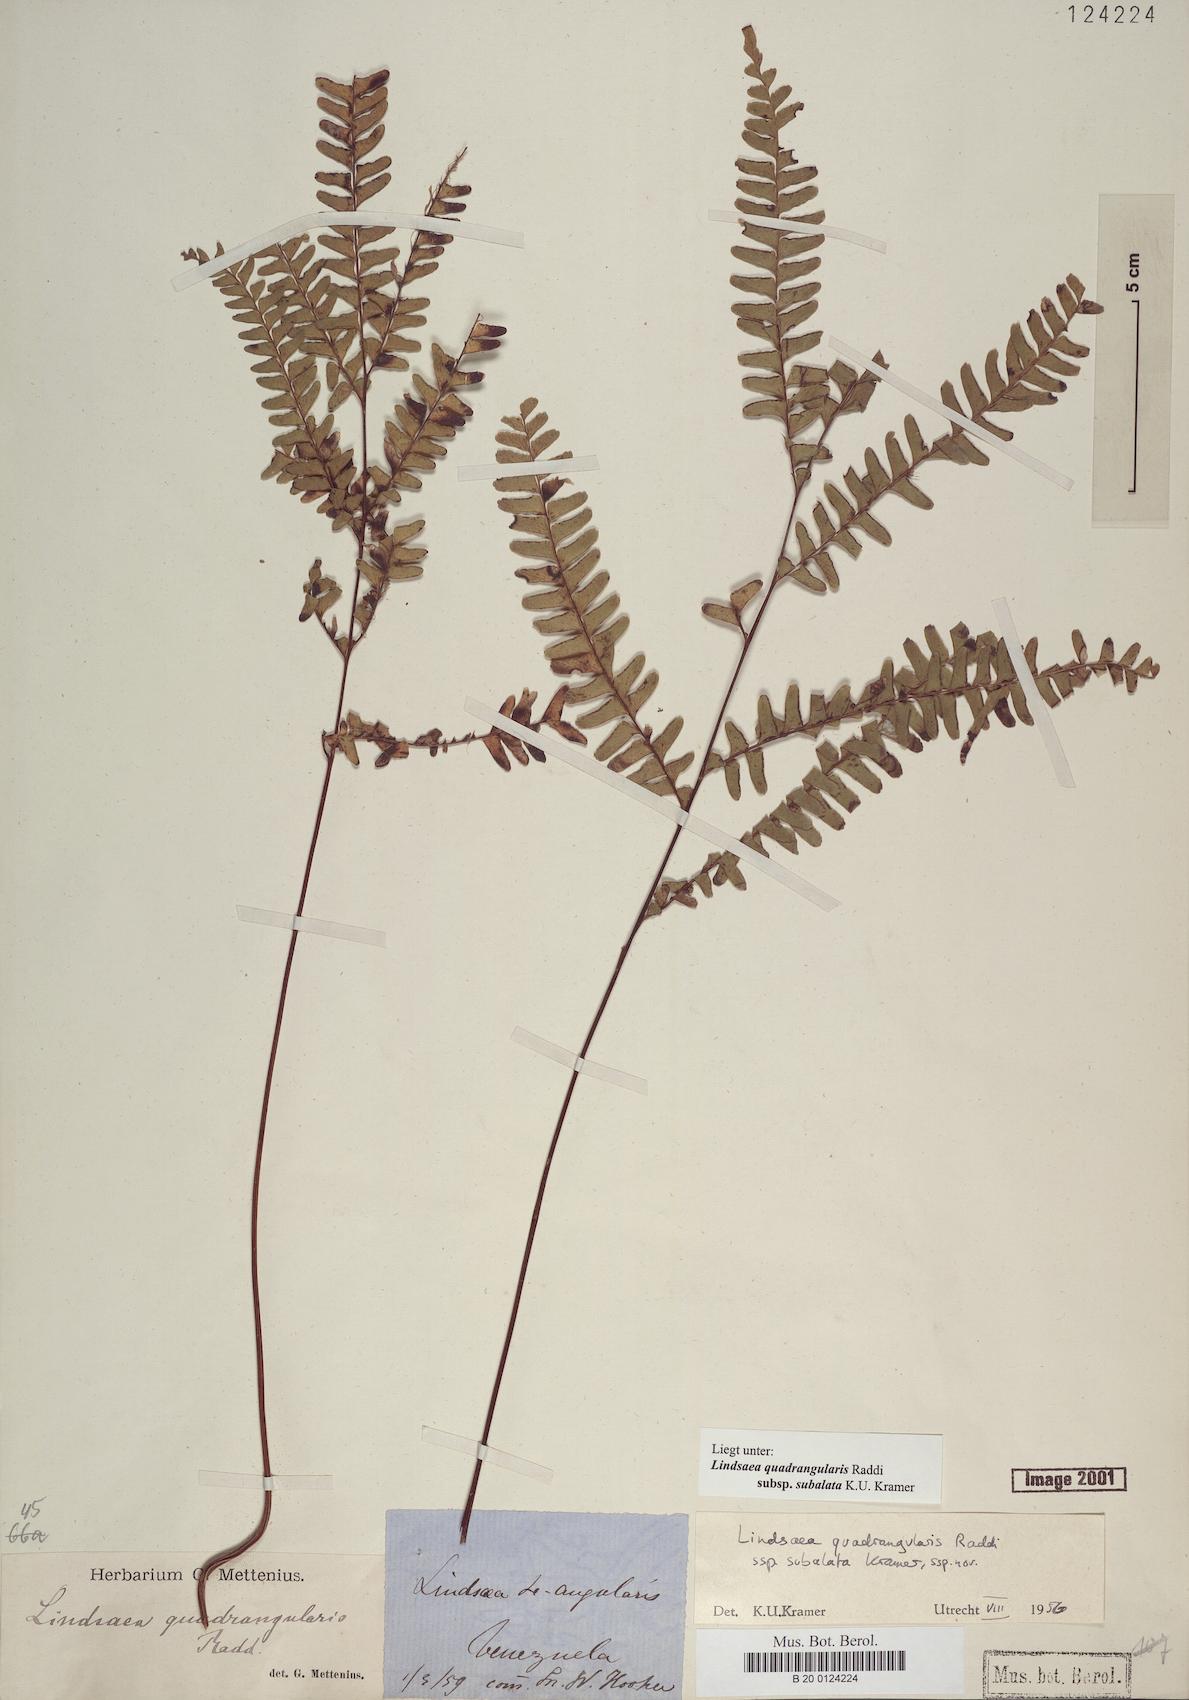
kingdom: Plantae
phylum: Tracheophyta
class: Polypodiopsida
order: Polypodiales
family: Lindsaeaceae
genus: Lindsaea
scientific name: Lindsaea subalata
